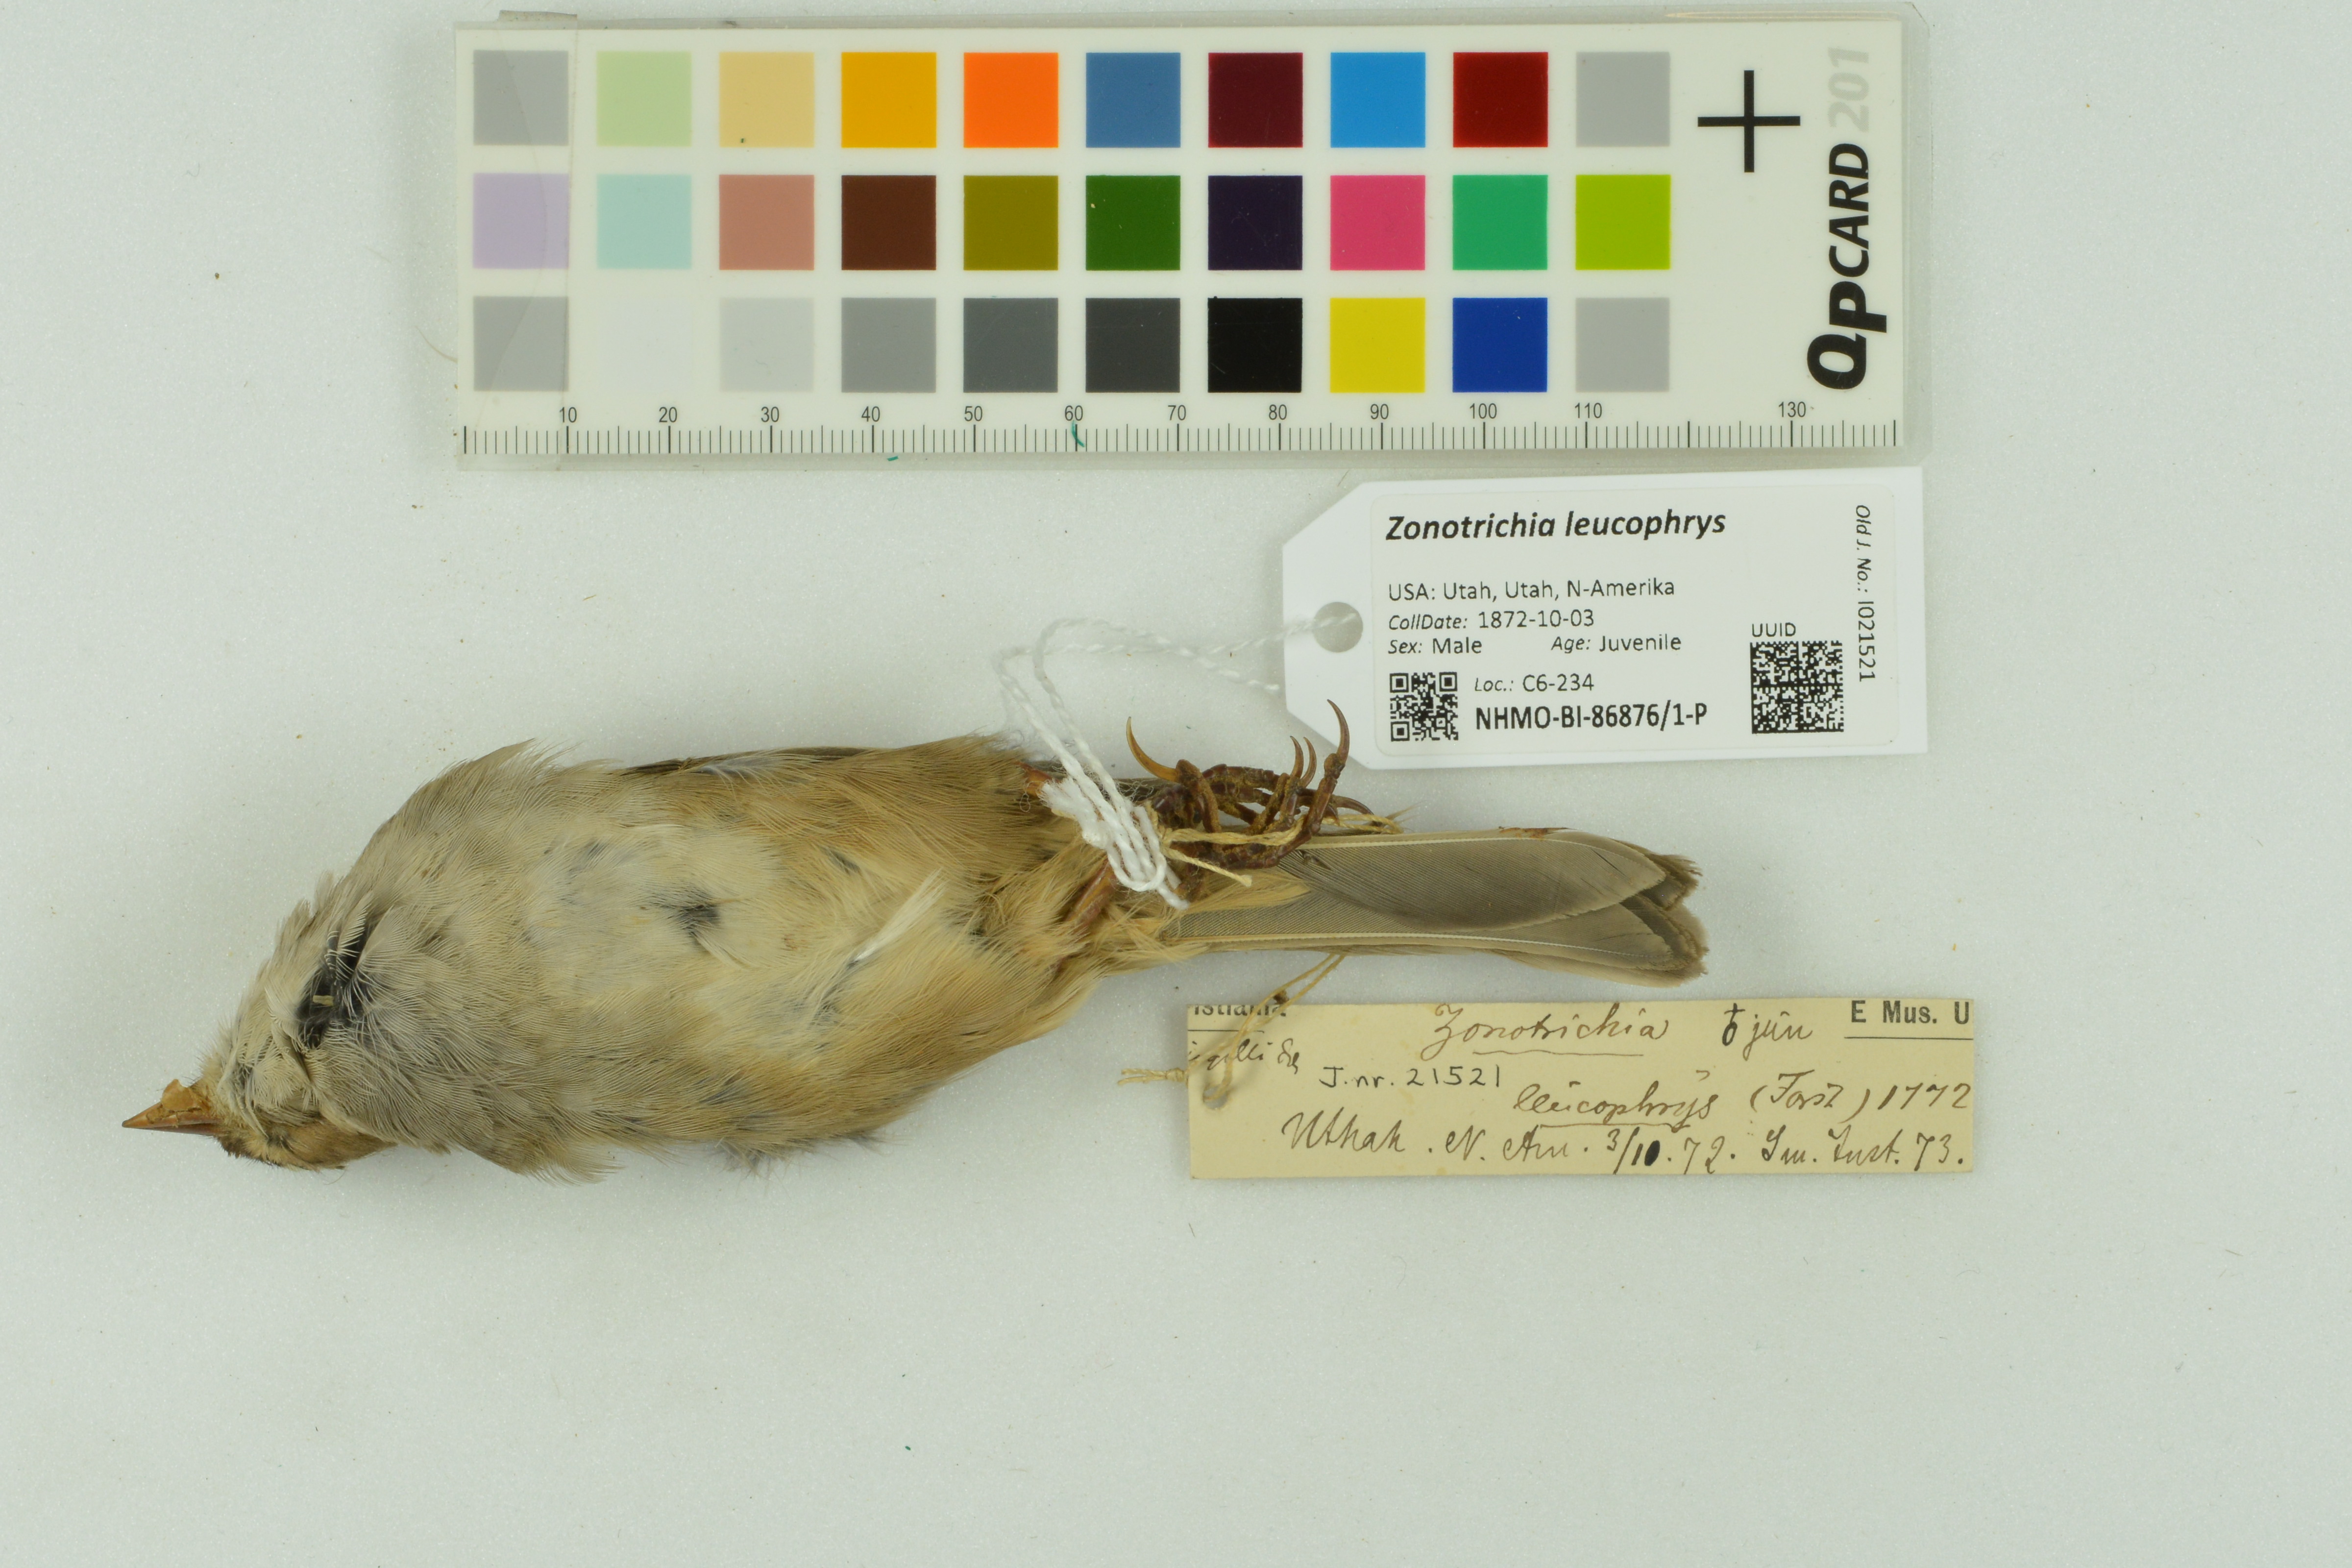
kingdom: Animalia
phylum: Chordata
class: Aves
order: Passeriformes
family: Passerellidae
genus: Zonotrichia
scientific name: Zonotrichia leucophrys
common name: White-crowned sparrow
